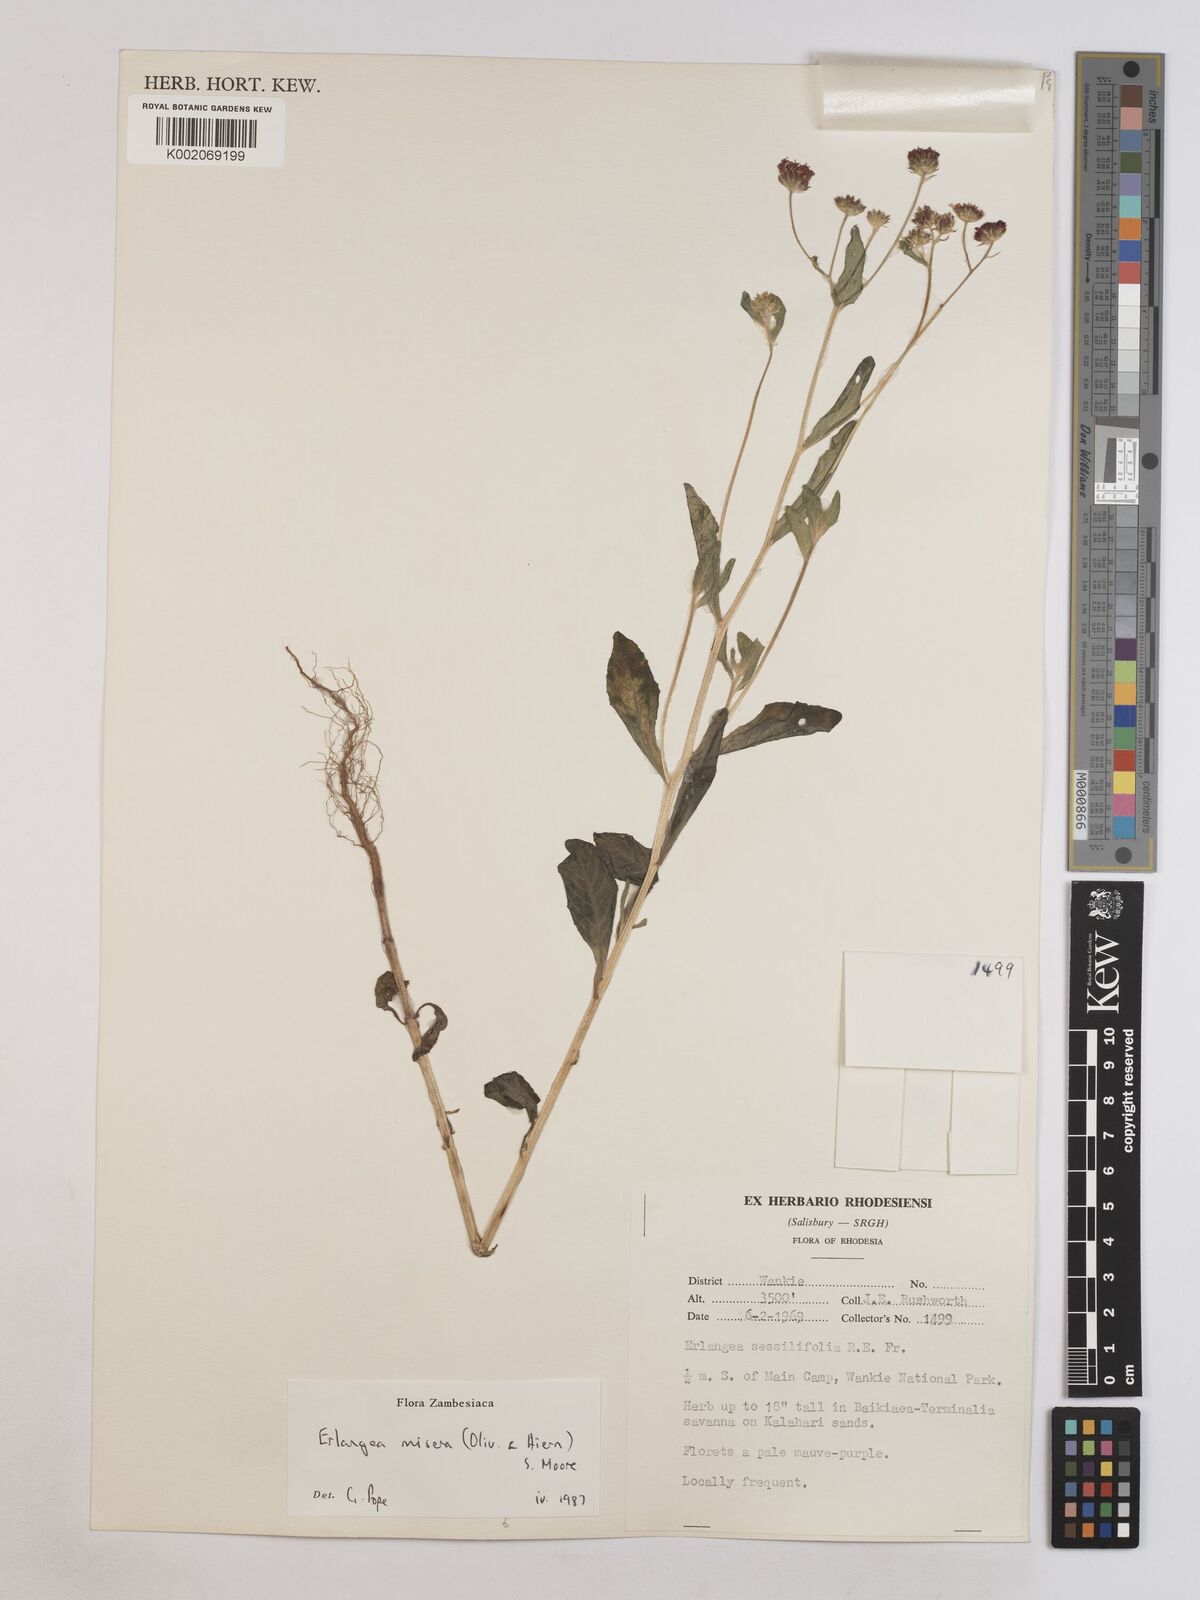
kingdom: Plantae
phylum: Tracheophyta
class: Magnoliopsida
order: Asterales
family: Asteraceae
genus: Erlangea
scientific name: Erlangea misera
